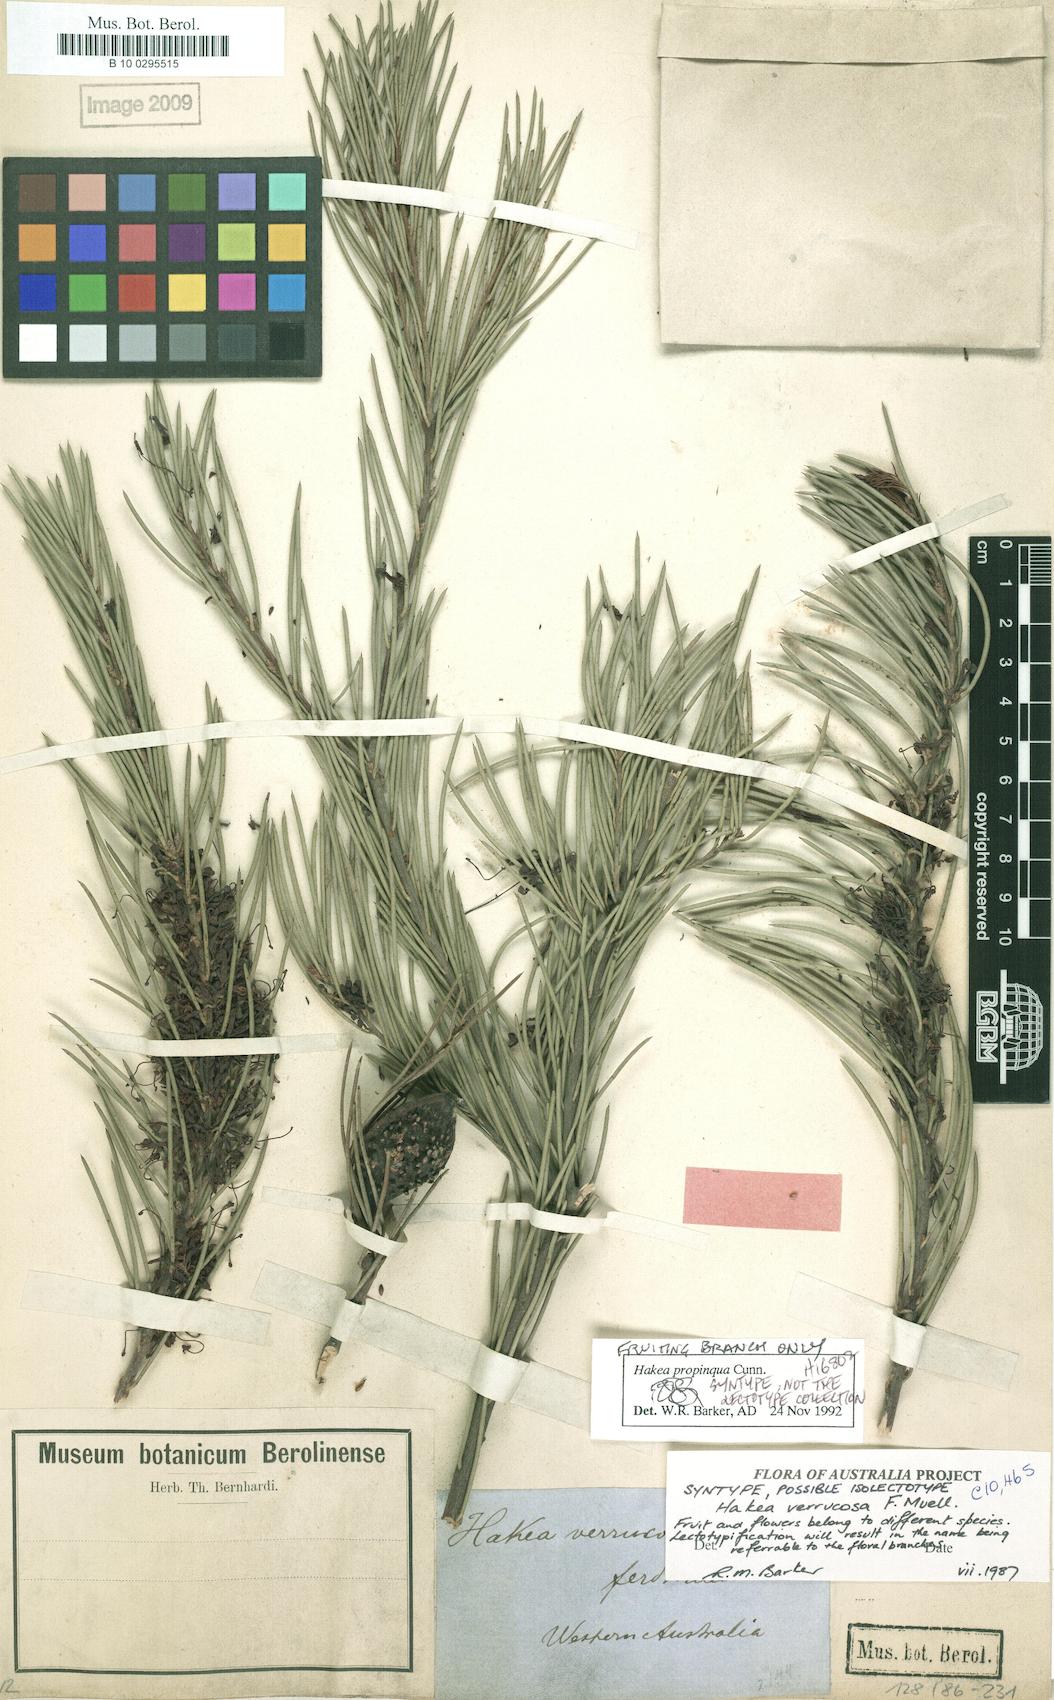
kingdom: Plantae
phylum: Tracheophyta
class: Magnoliopsida
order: Proteales
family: Proteaceae
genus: Hakea
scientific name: Hakea propinqua
